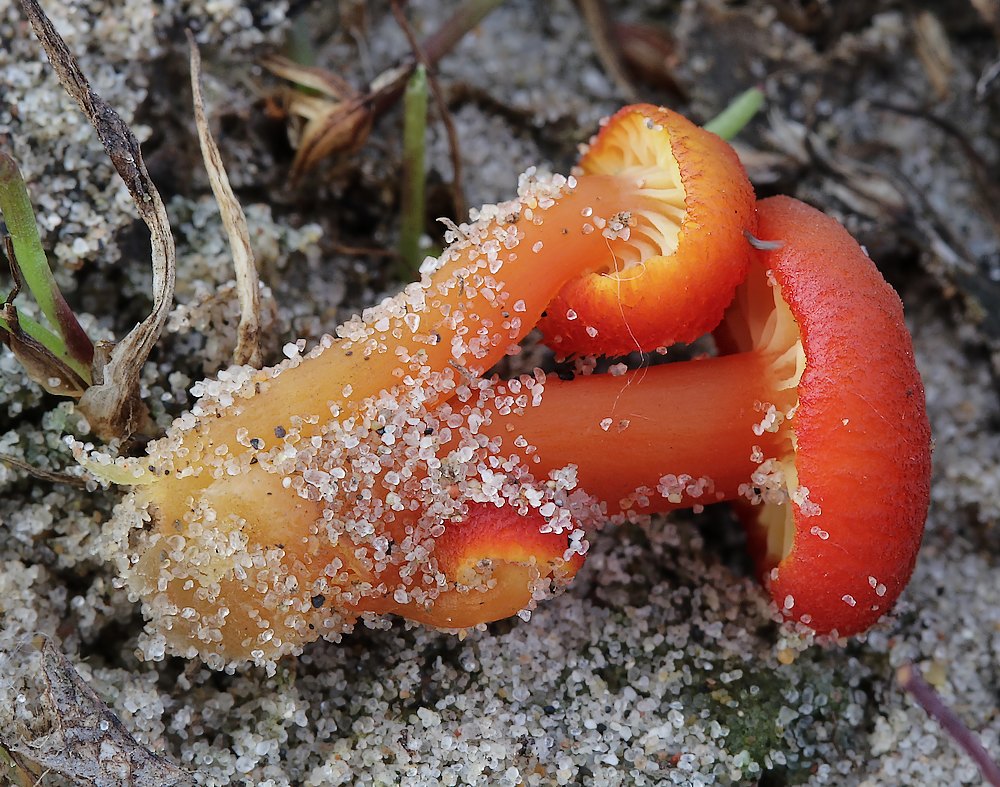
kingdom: Fungi
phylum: Basidiomycota
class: Agaricomycetes
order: Agaricales
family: Hygrophoraceae
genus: Hygrocybe
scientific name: Hygrocybe substrangulata
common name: kær-vokshat
